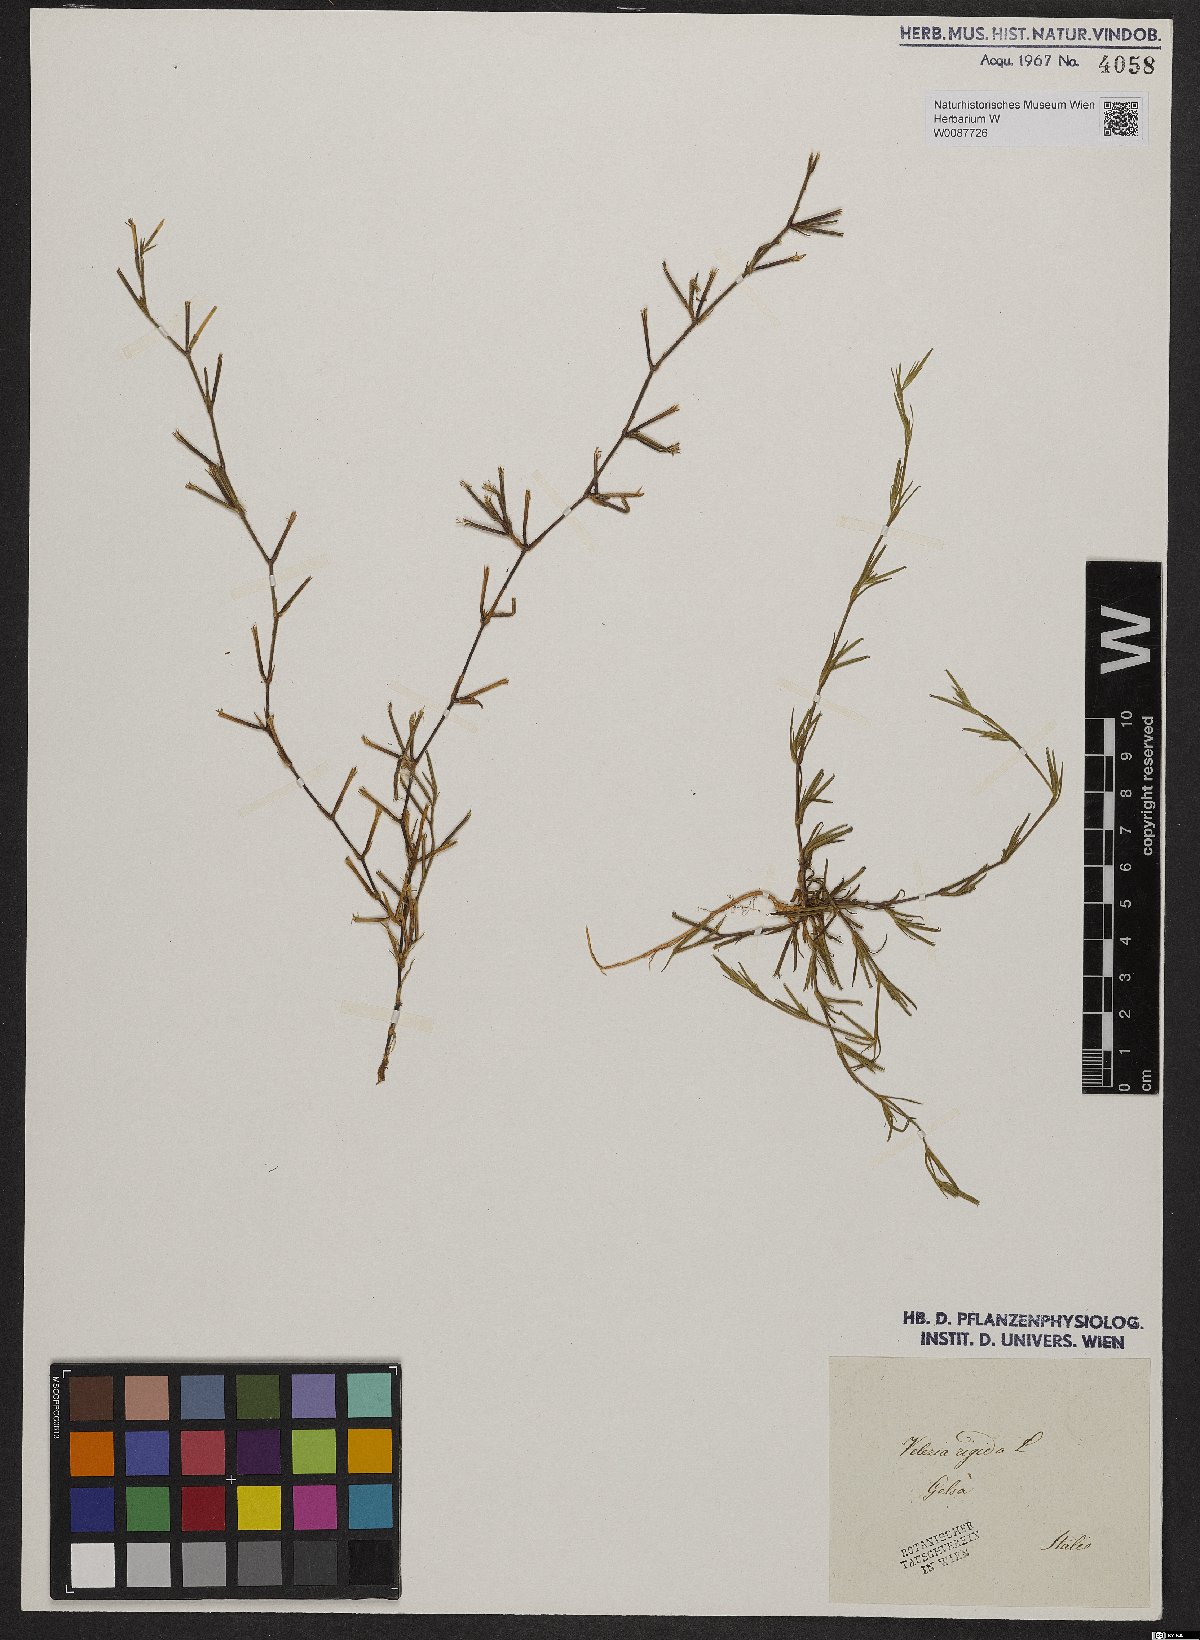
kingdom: Plantae
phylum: Tracheophyta
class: Magnoliopsida
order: Caryophyllales
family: Caryophyllaceae
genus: Dianthus
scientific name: Dianthus nudiflorus
